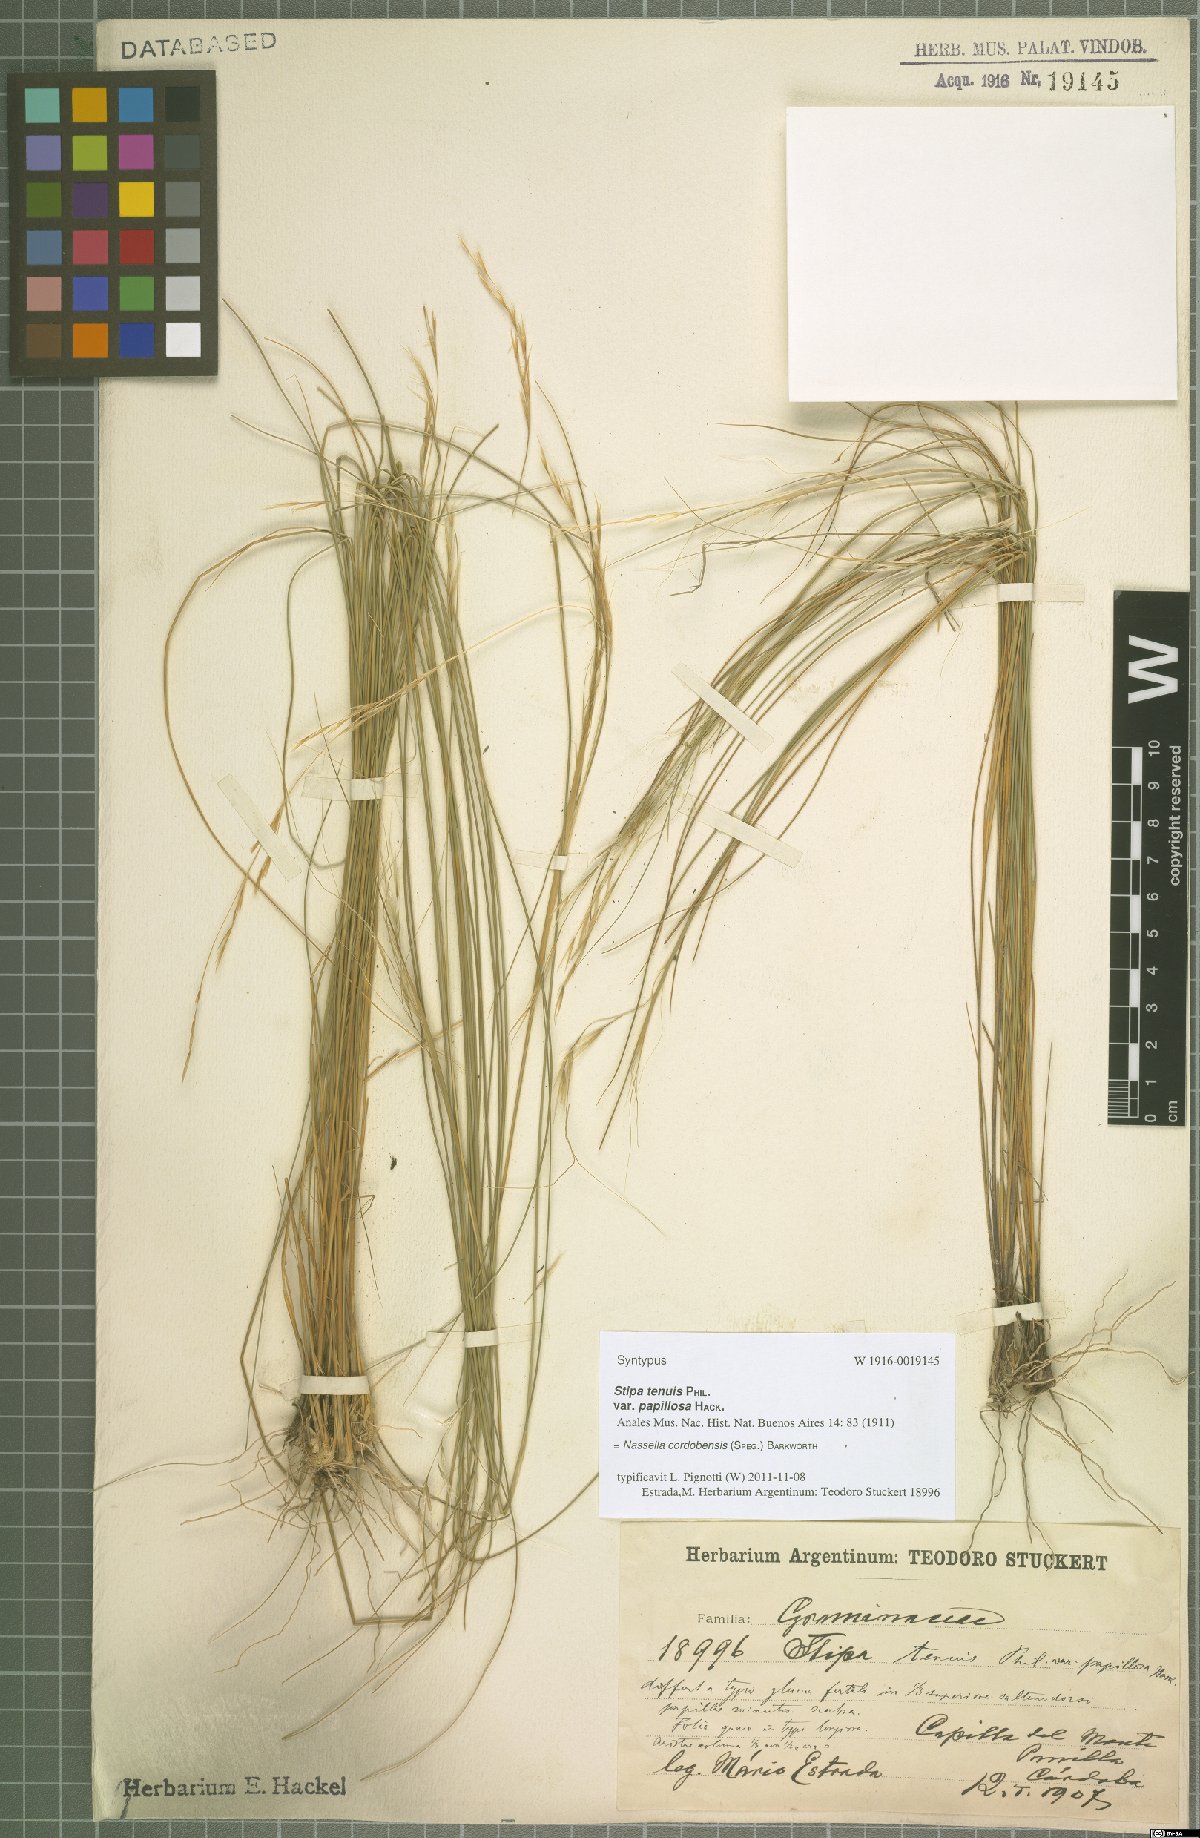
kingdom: Plantae
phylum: Tracheophyta
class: Liliopsida
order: Poales
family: Poaceae
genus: Nassella
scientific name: Nassella cordobensis
